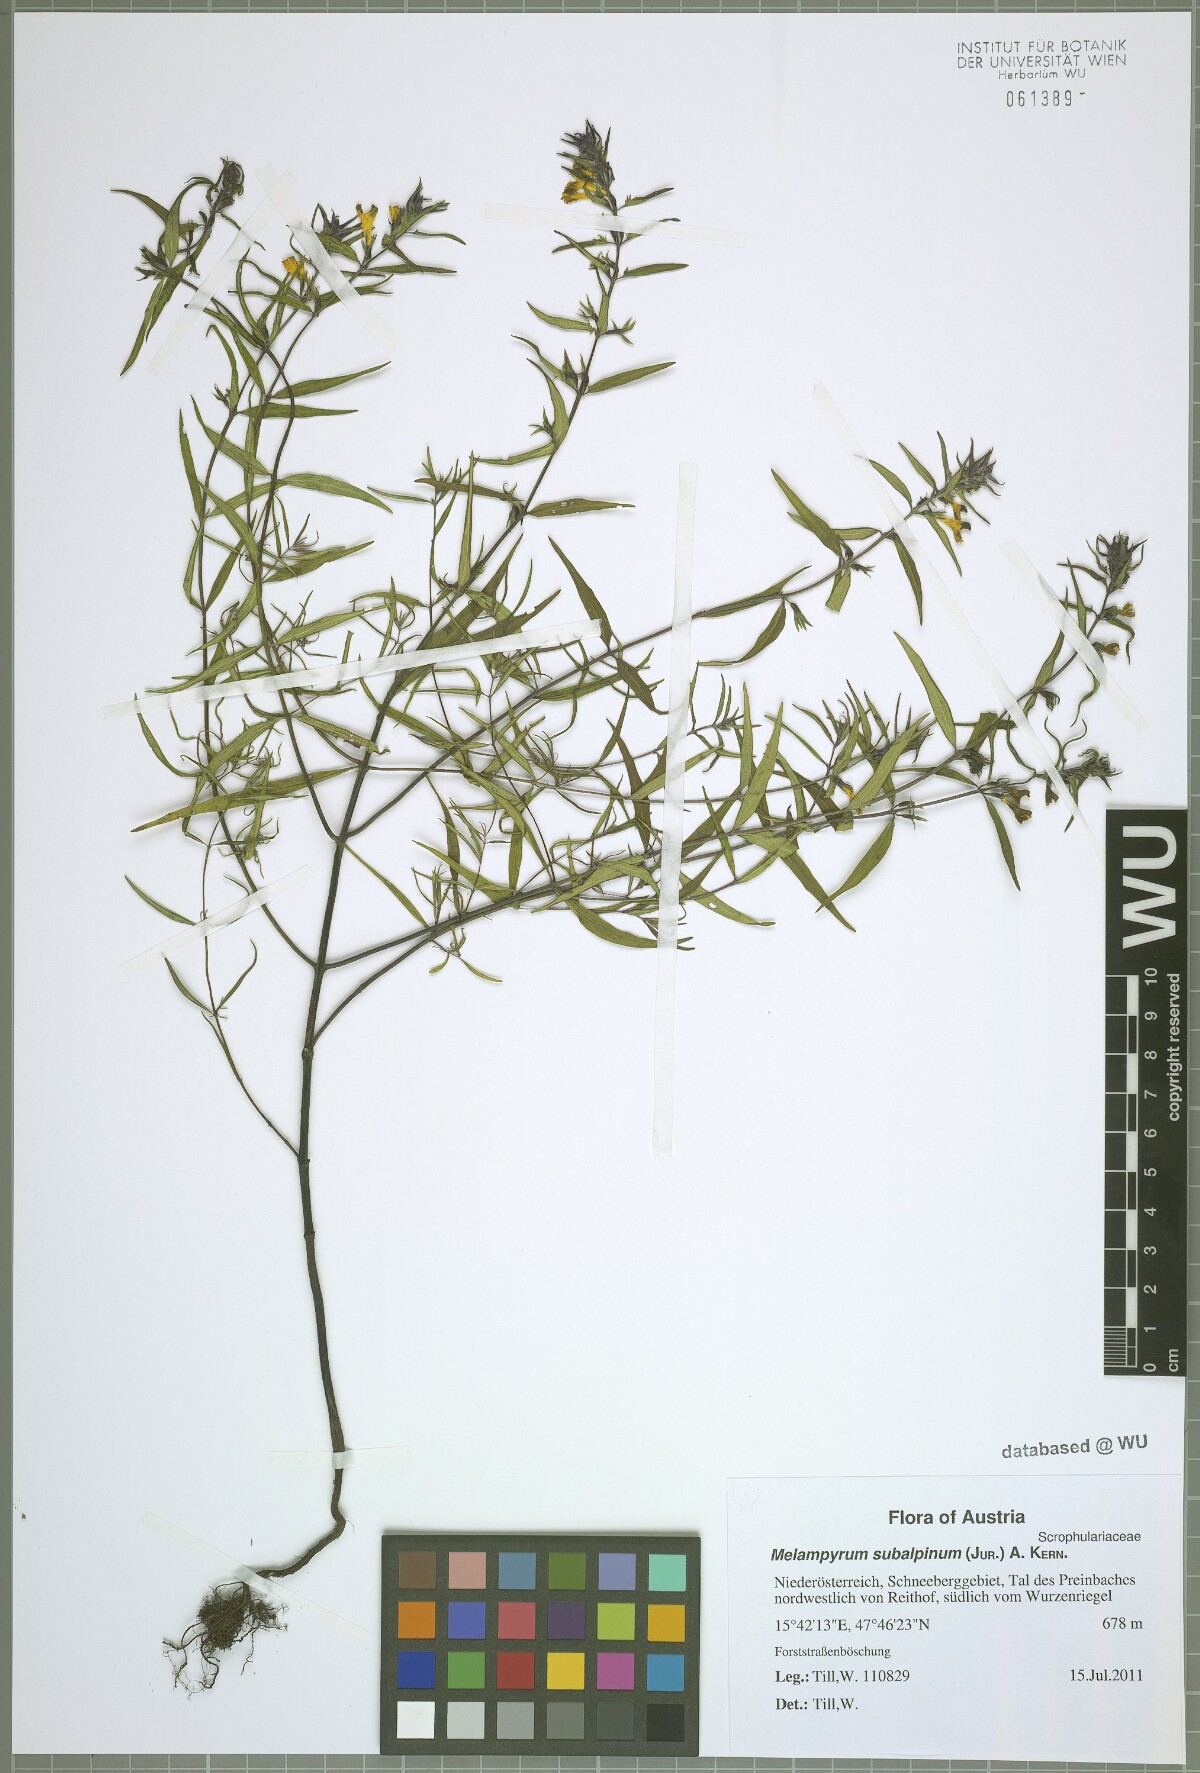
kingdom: Plantae
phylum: Tracheophyta
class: Magnoliopsida
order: Lamiales
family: Orobanchaceae
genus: Melampyrum
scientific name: Melampyrum subalpinum
